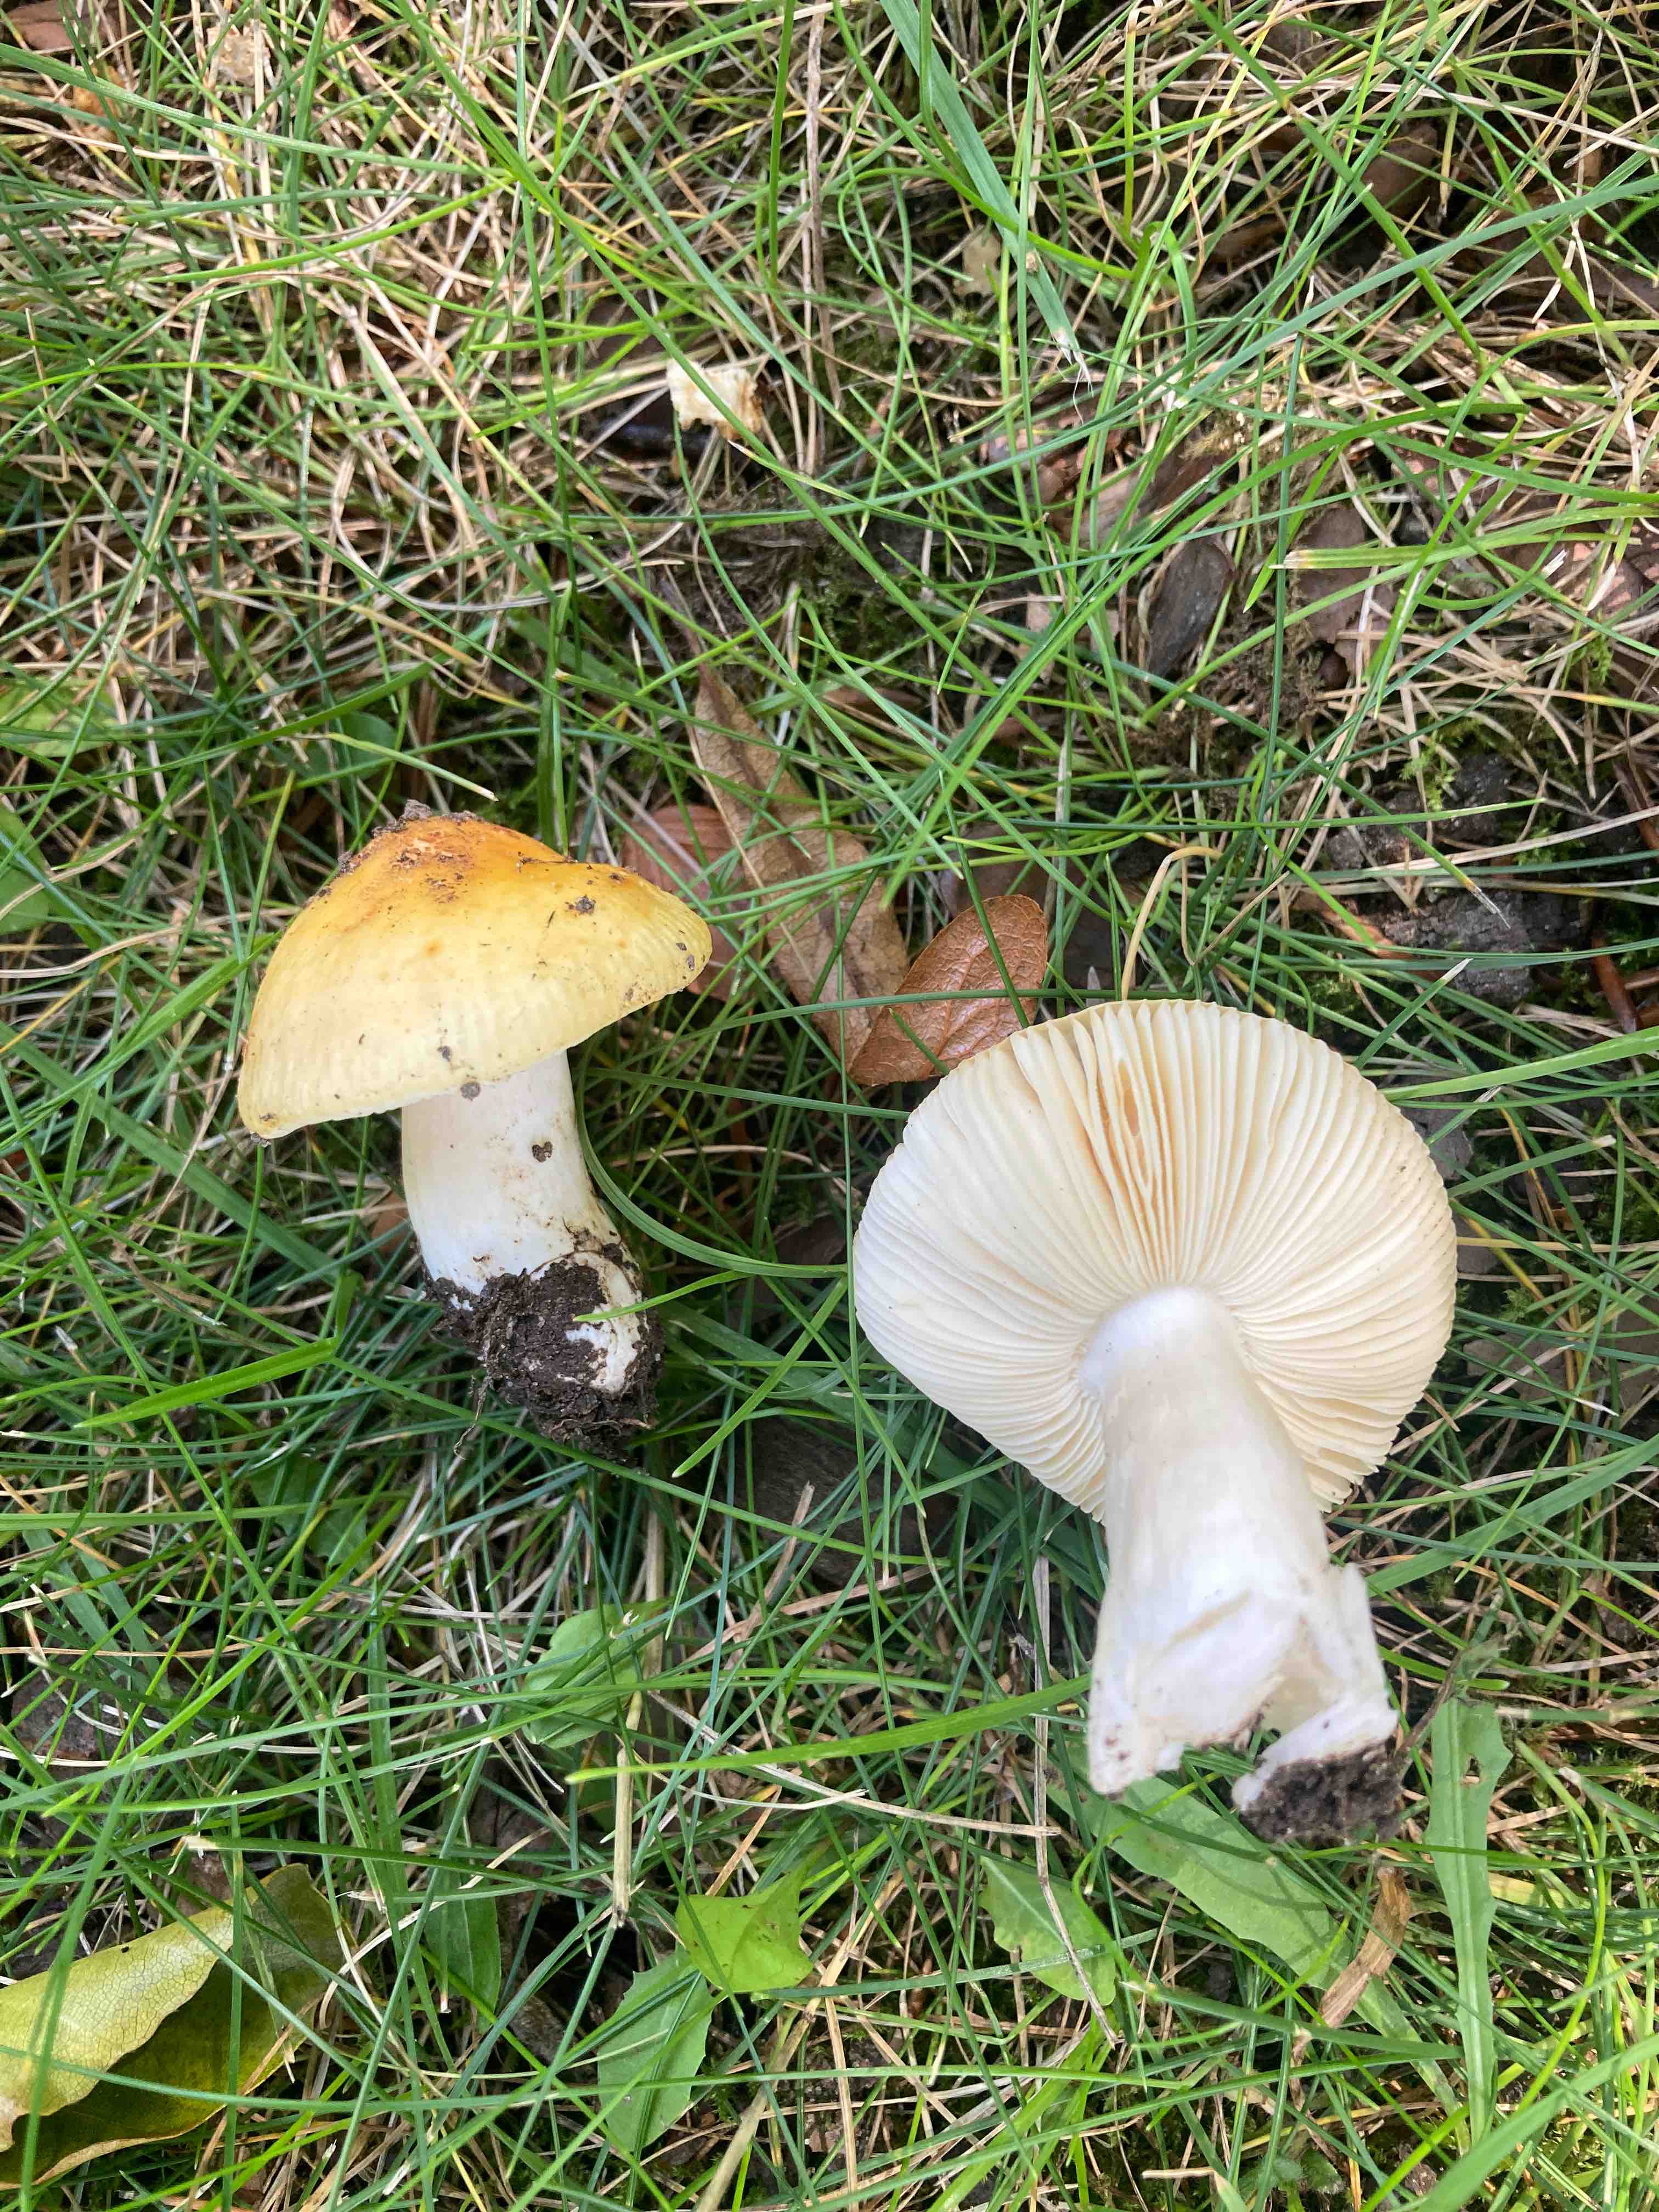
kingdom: Fungi
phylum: Basidiomycota
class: Agaricomycetes
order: Russulales
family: Russulaceae
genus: Russula
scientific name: Russula solaris
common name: sol-skørhat
